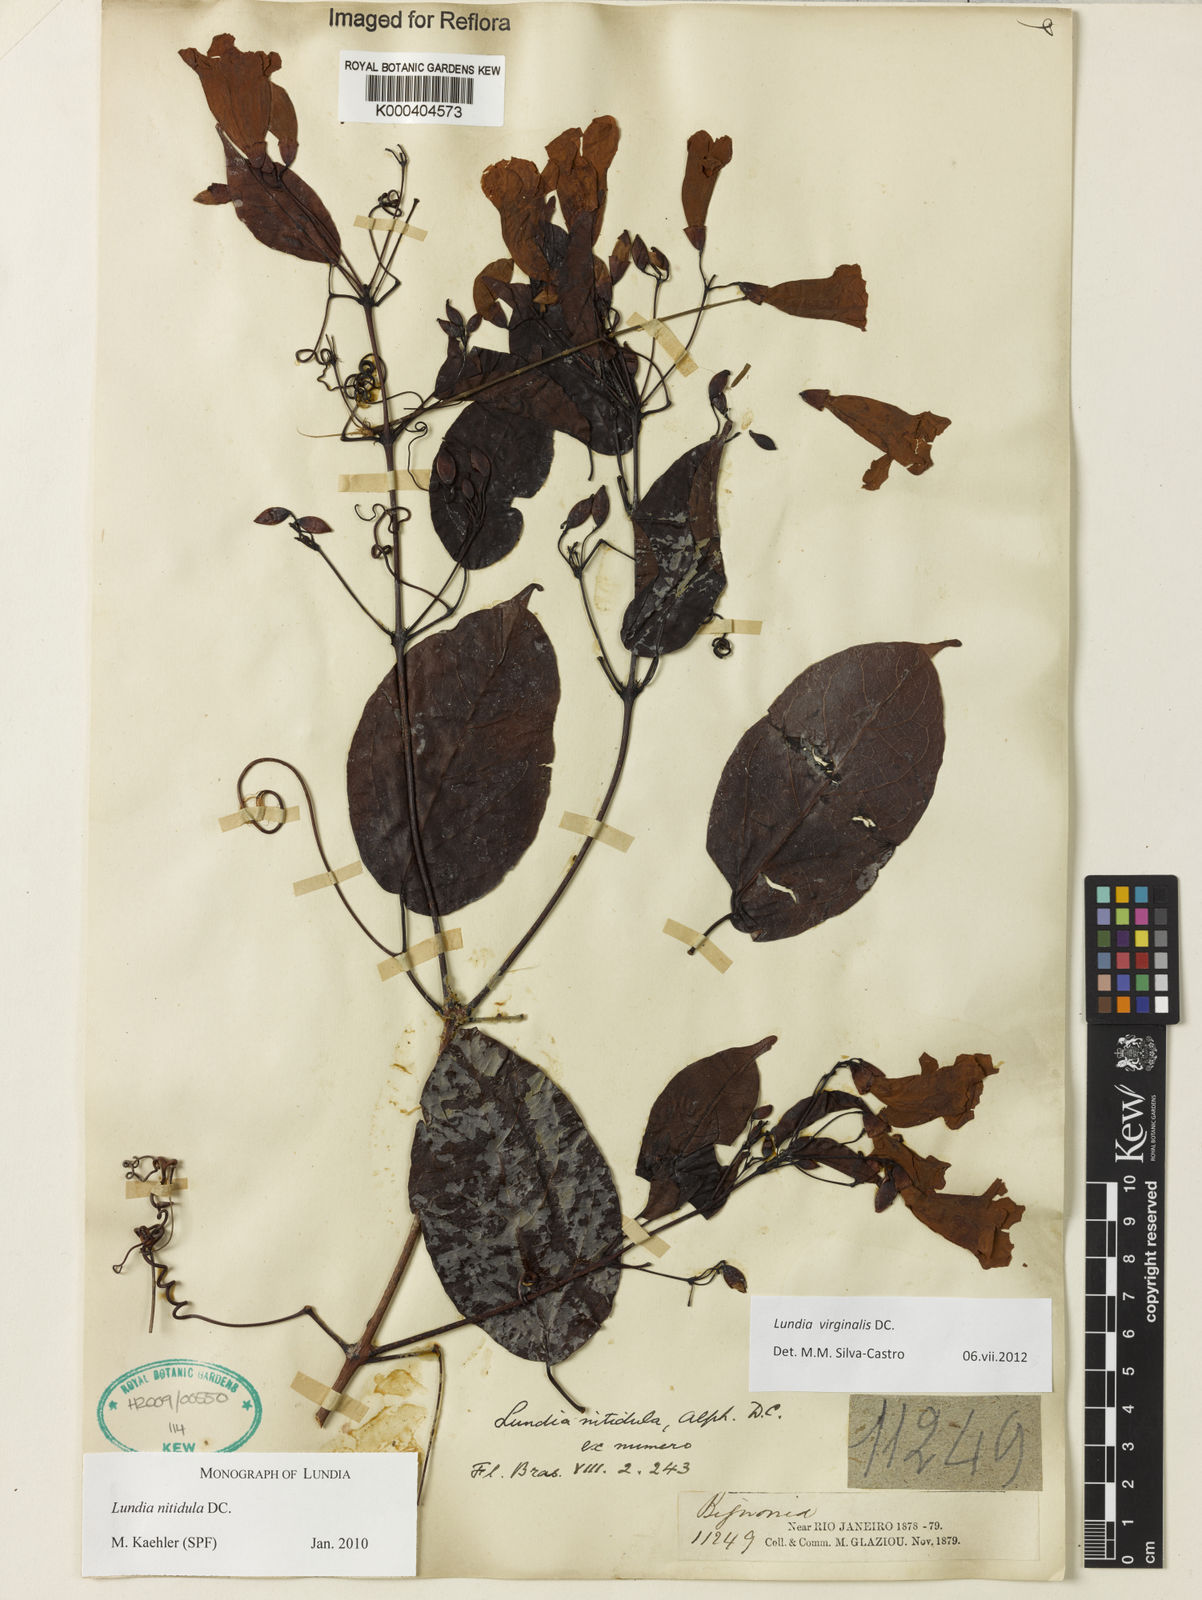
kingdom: Plantae
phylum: Tracheophyta
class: Magnoliopsida
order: Lamiales
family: Bignoniaceae
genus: Lundia
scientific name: Lundia virginalis
